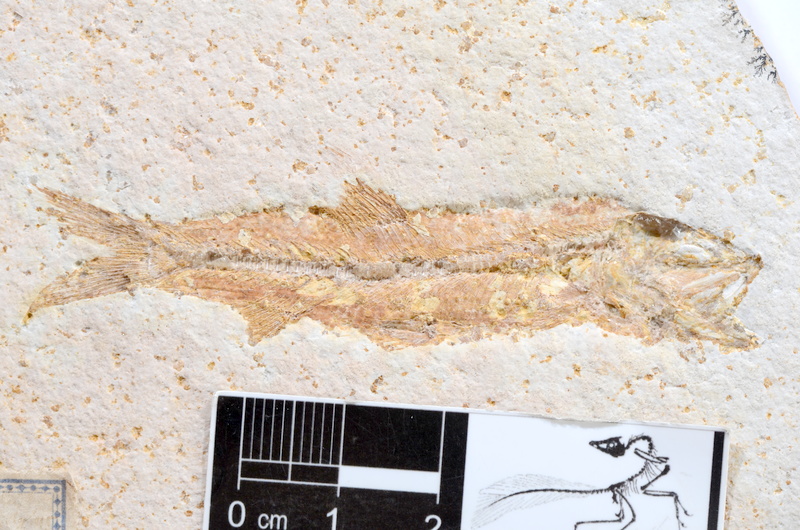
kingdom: Animalia
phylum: Chordata
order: Elopiformes
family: Anaethalionidae
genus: Anaethalion
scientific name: Anaethalion
